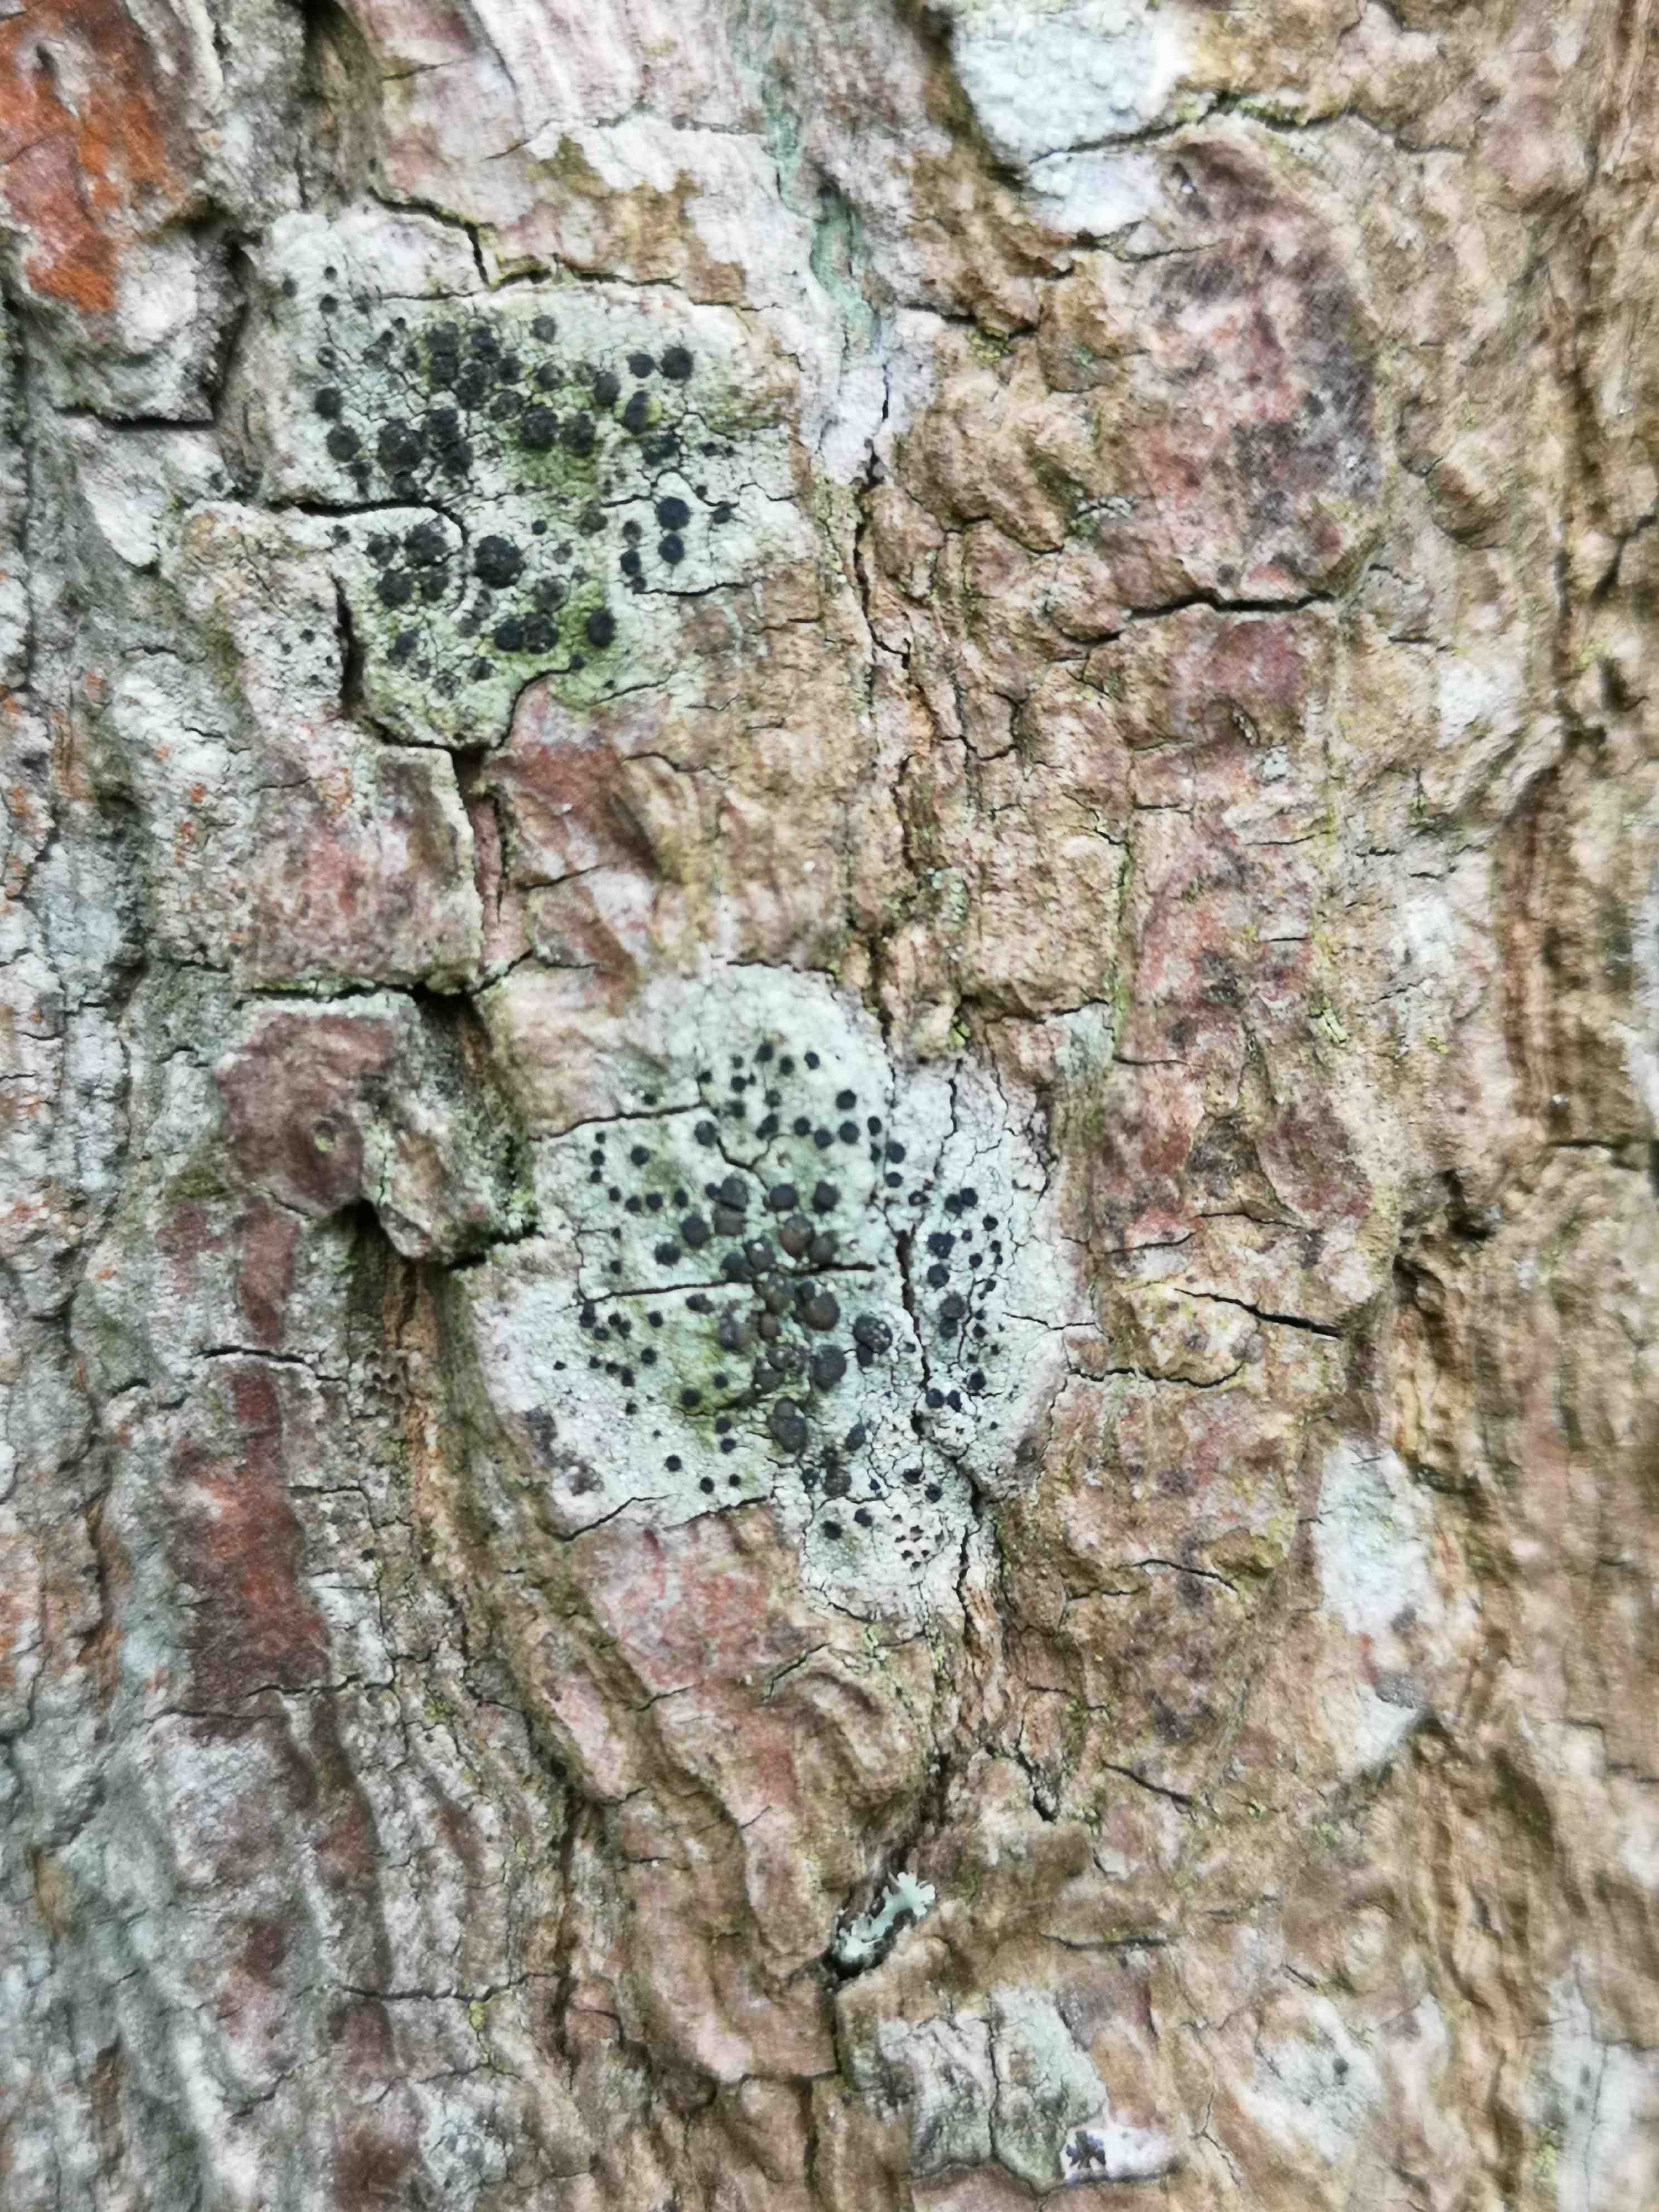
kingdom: Fungi
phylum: Ascomycota
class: Lecanoromycetes
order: Lecanorales
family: Lecanoraceae
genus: Lecidella
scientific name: Lecidella elaeochroma
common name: grågrøn skivelav
